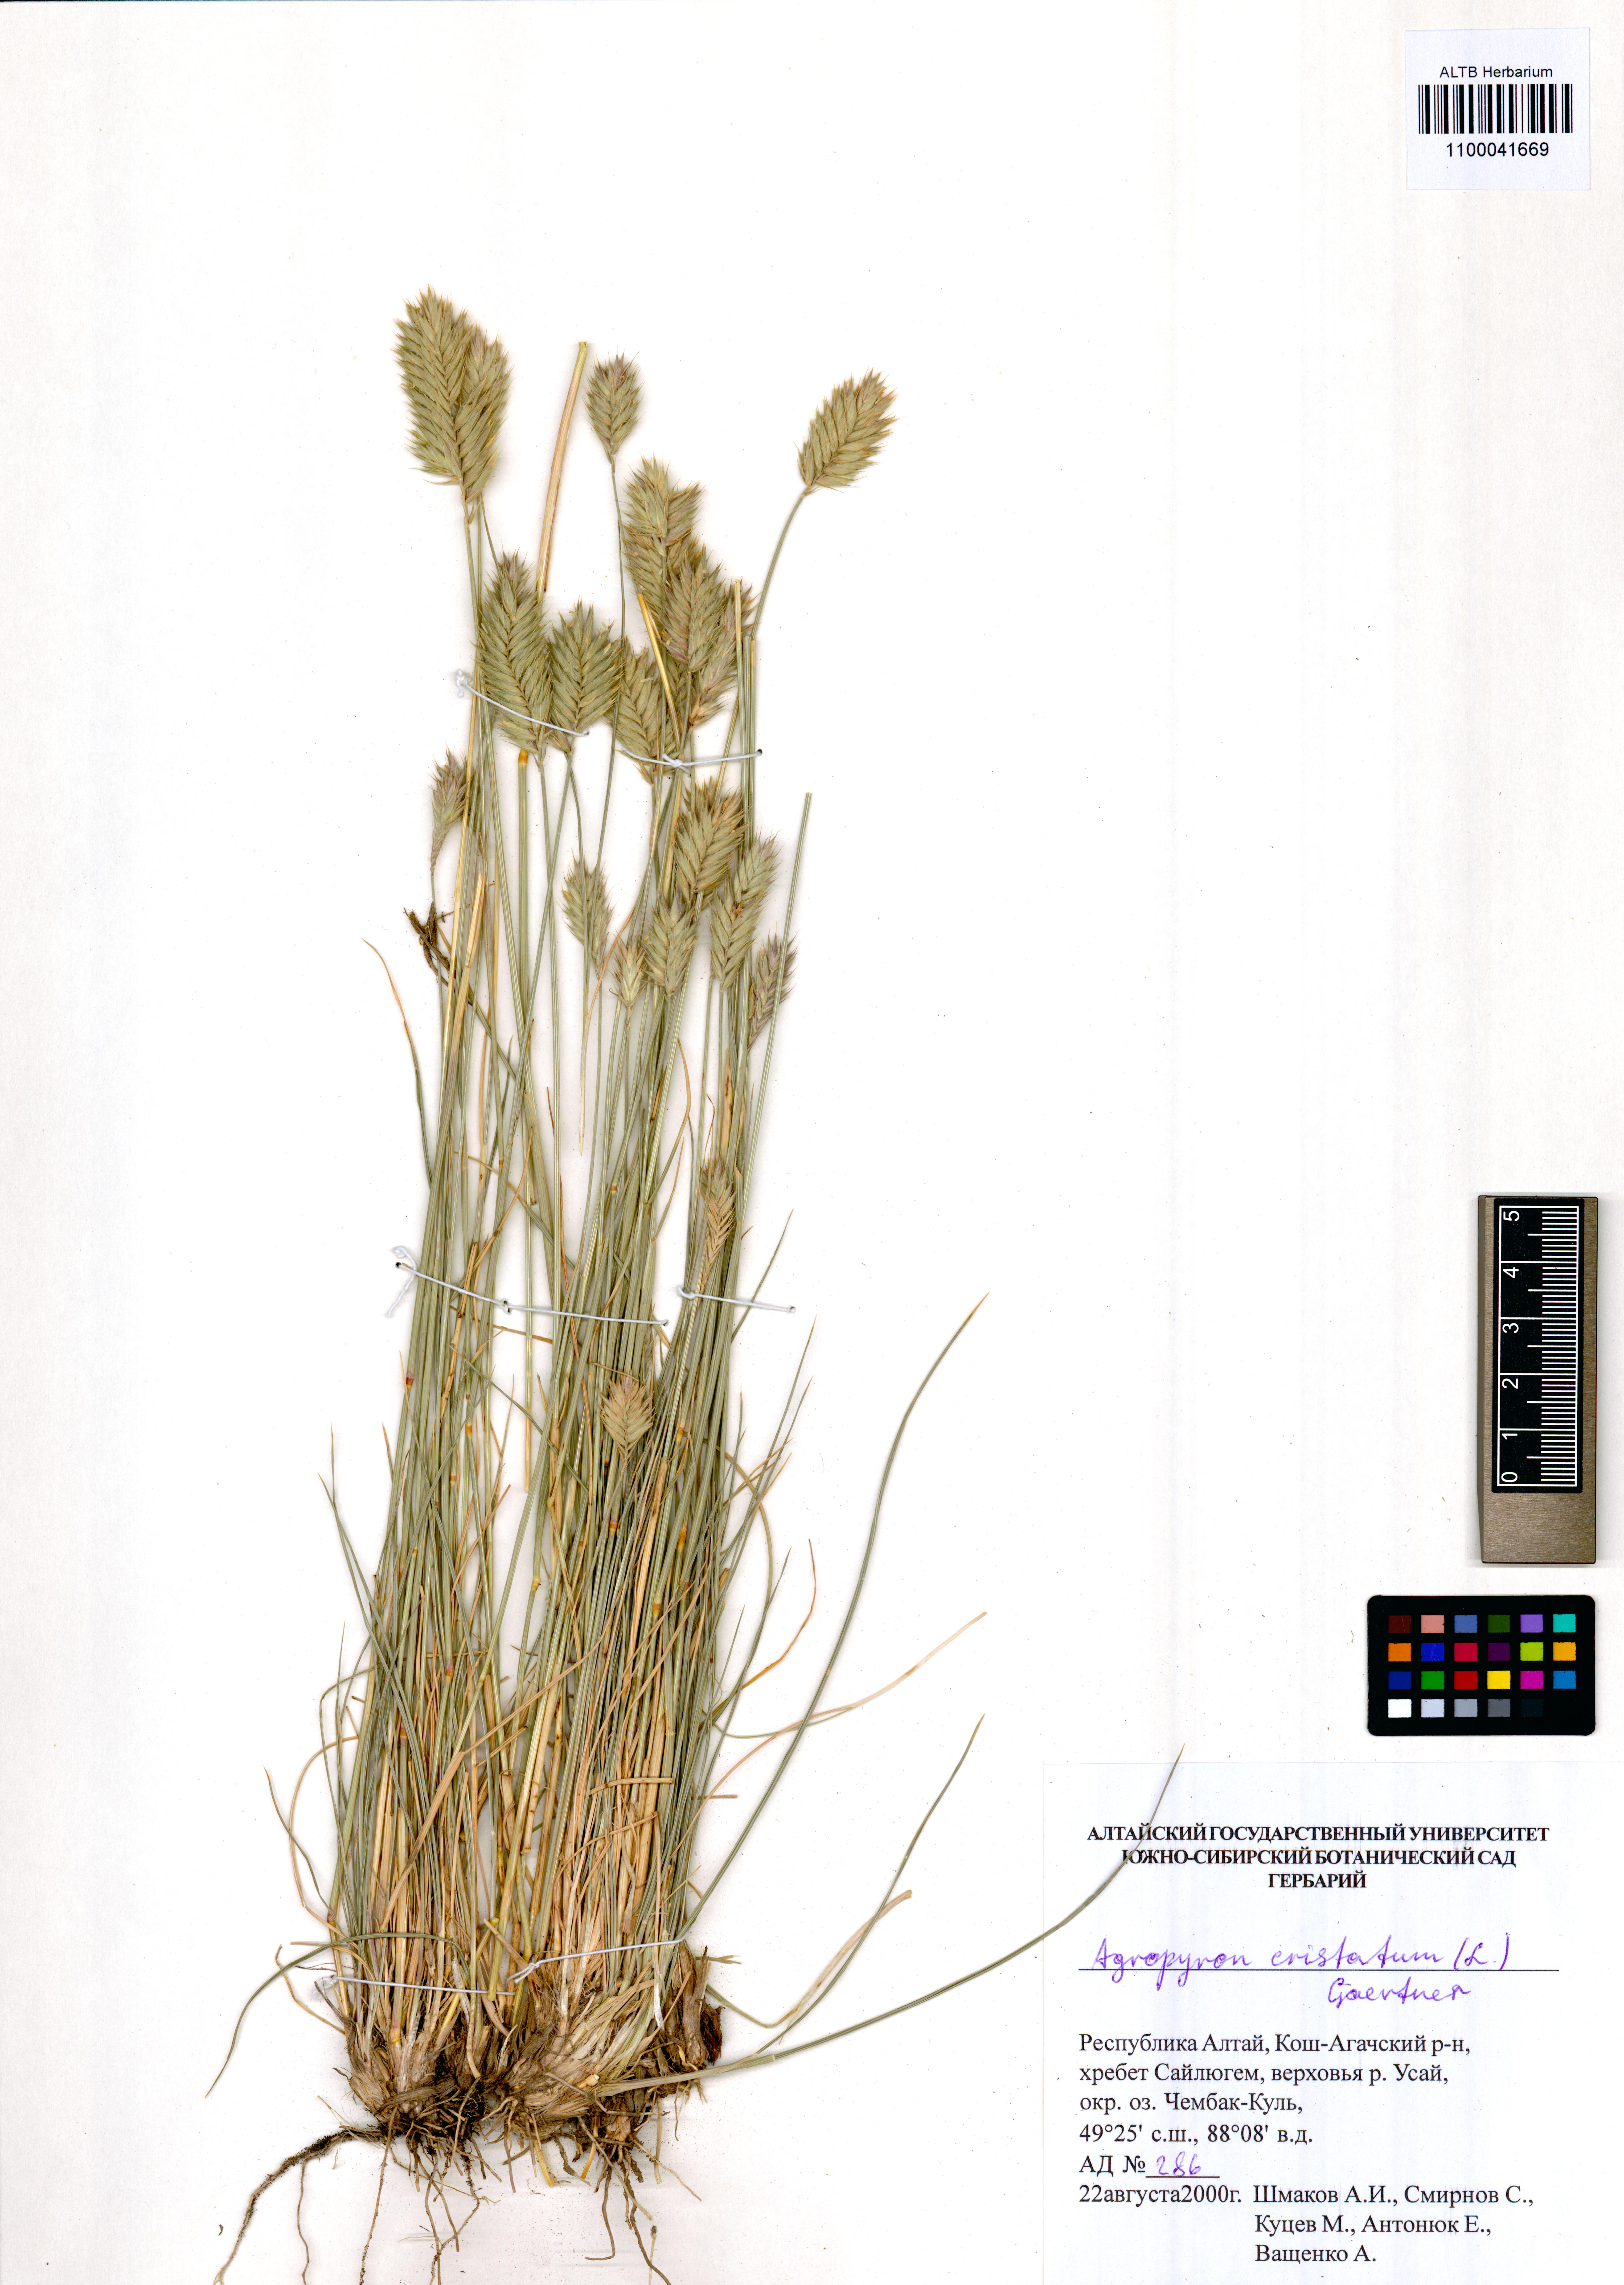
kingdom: Plantae
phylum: Tracheophyta
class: Liliopsida
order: Poales
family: Poaceae
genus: Agropyron
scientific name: Agropyron cristatum
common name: Crested wheatgrass
